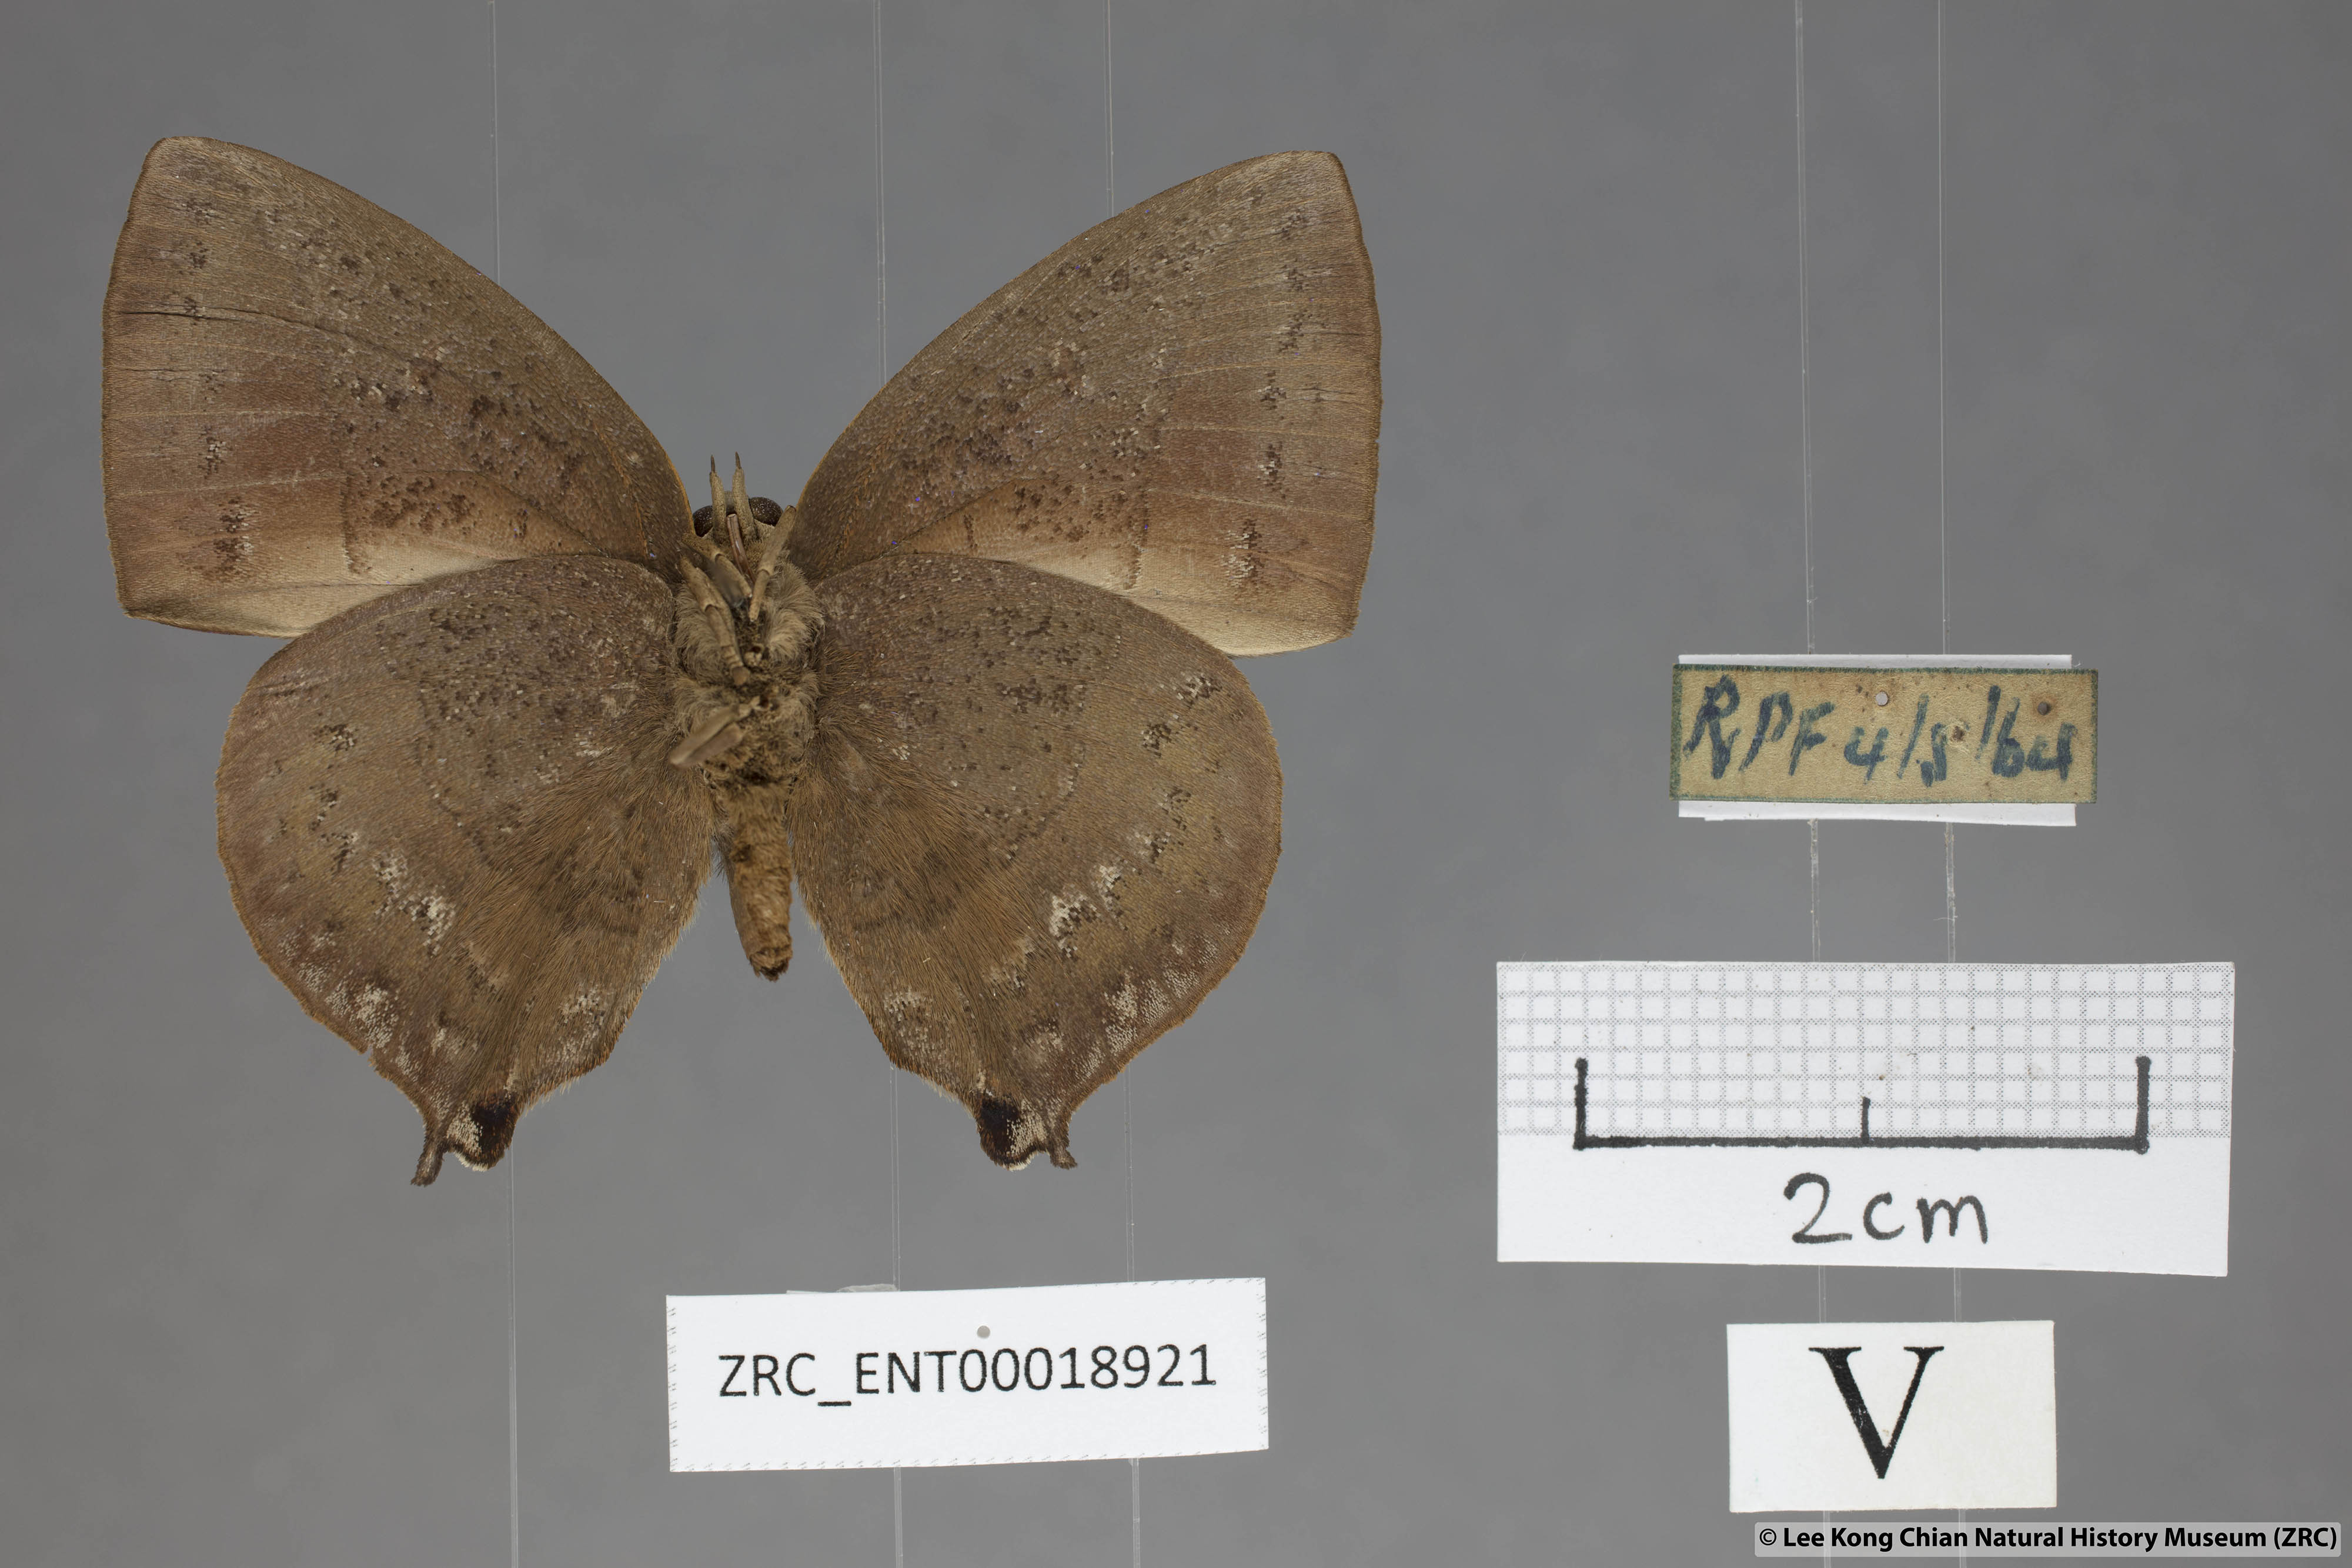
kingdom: Animalia
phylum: Arthropoda
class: Insecta
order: Lepidoptera
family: Lycaenidae
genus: Amblypodia
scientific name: Amblypodia narada
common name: Blue leaf blue
